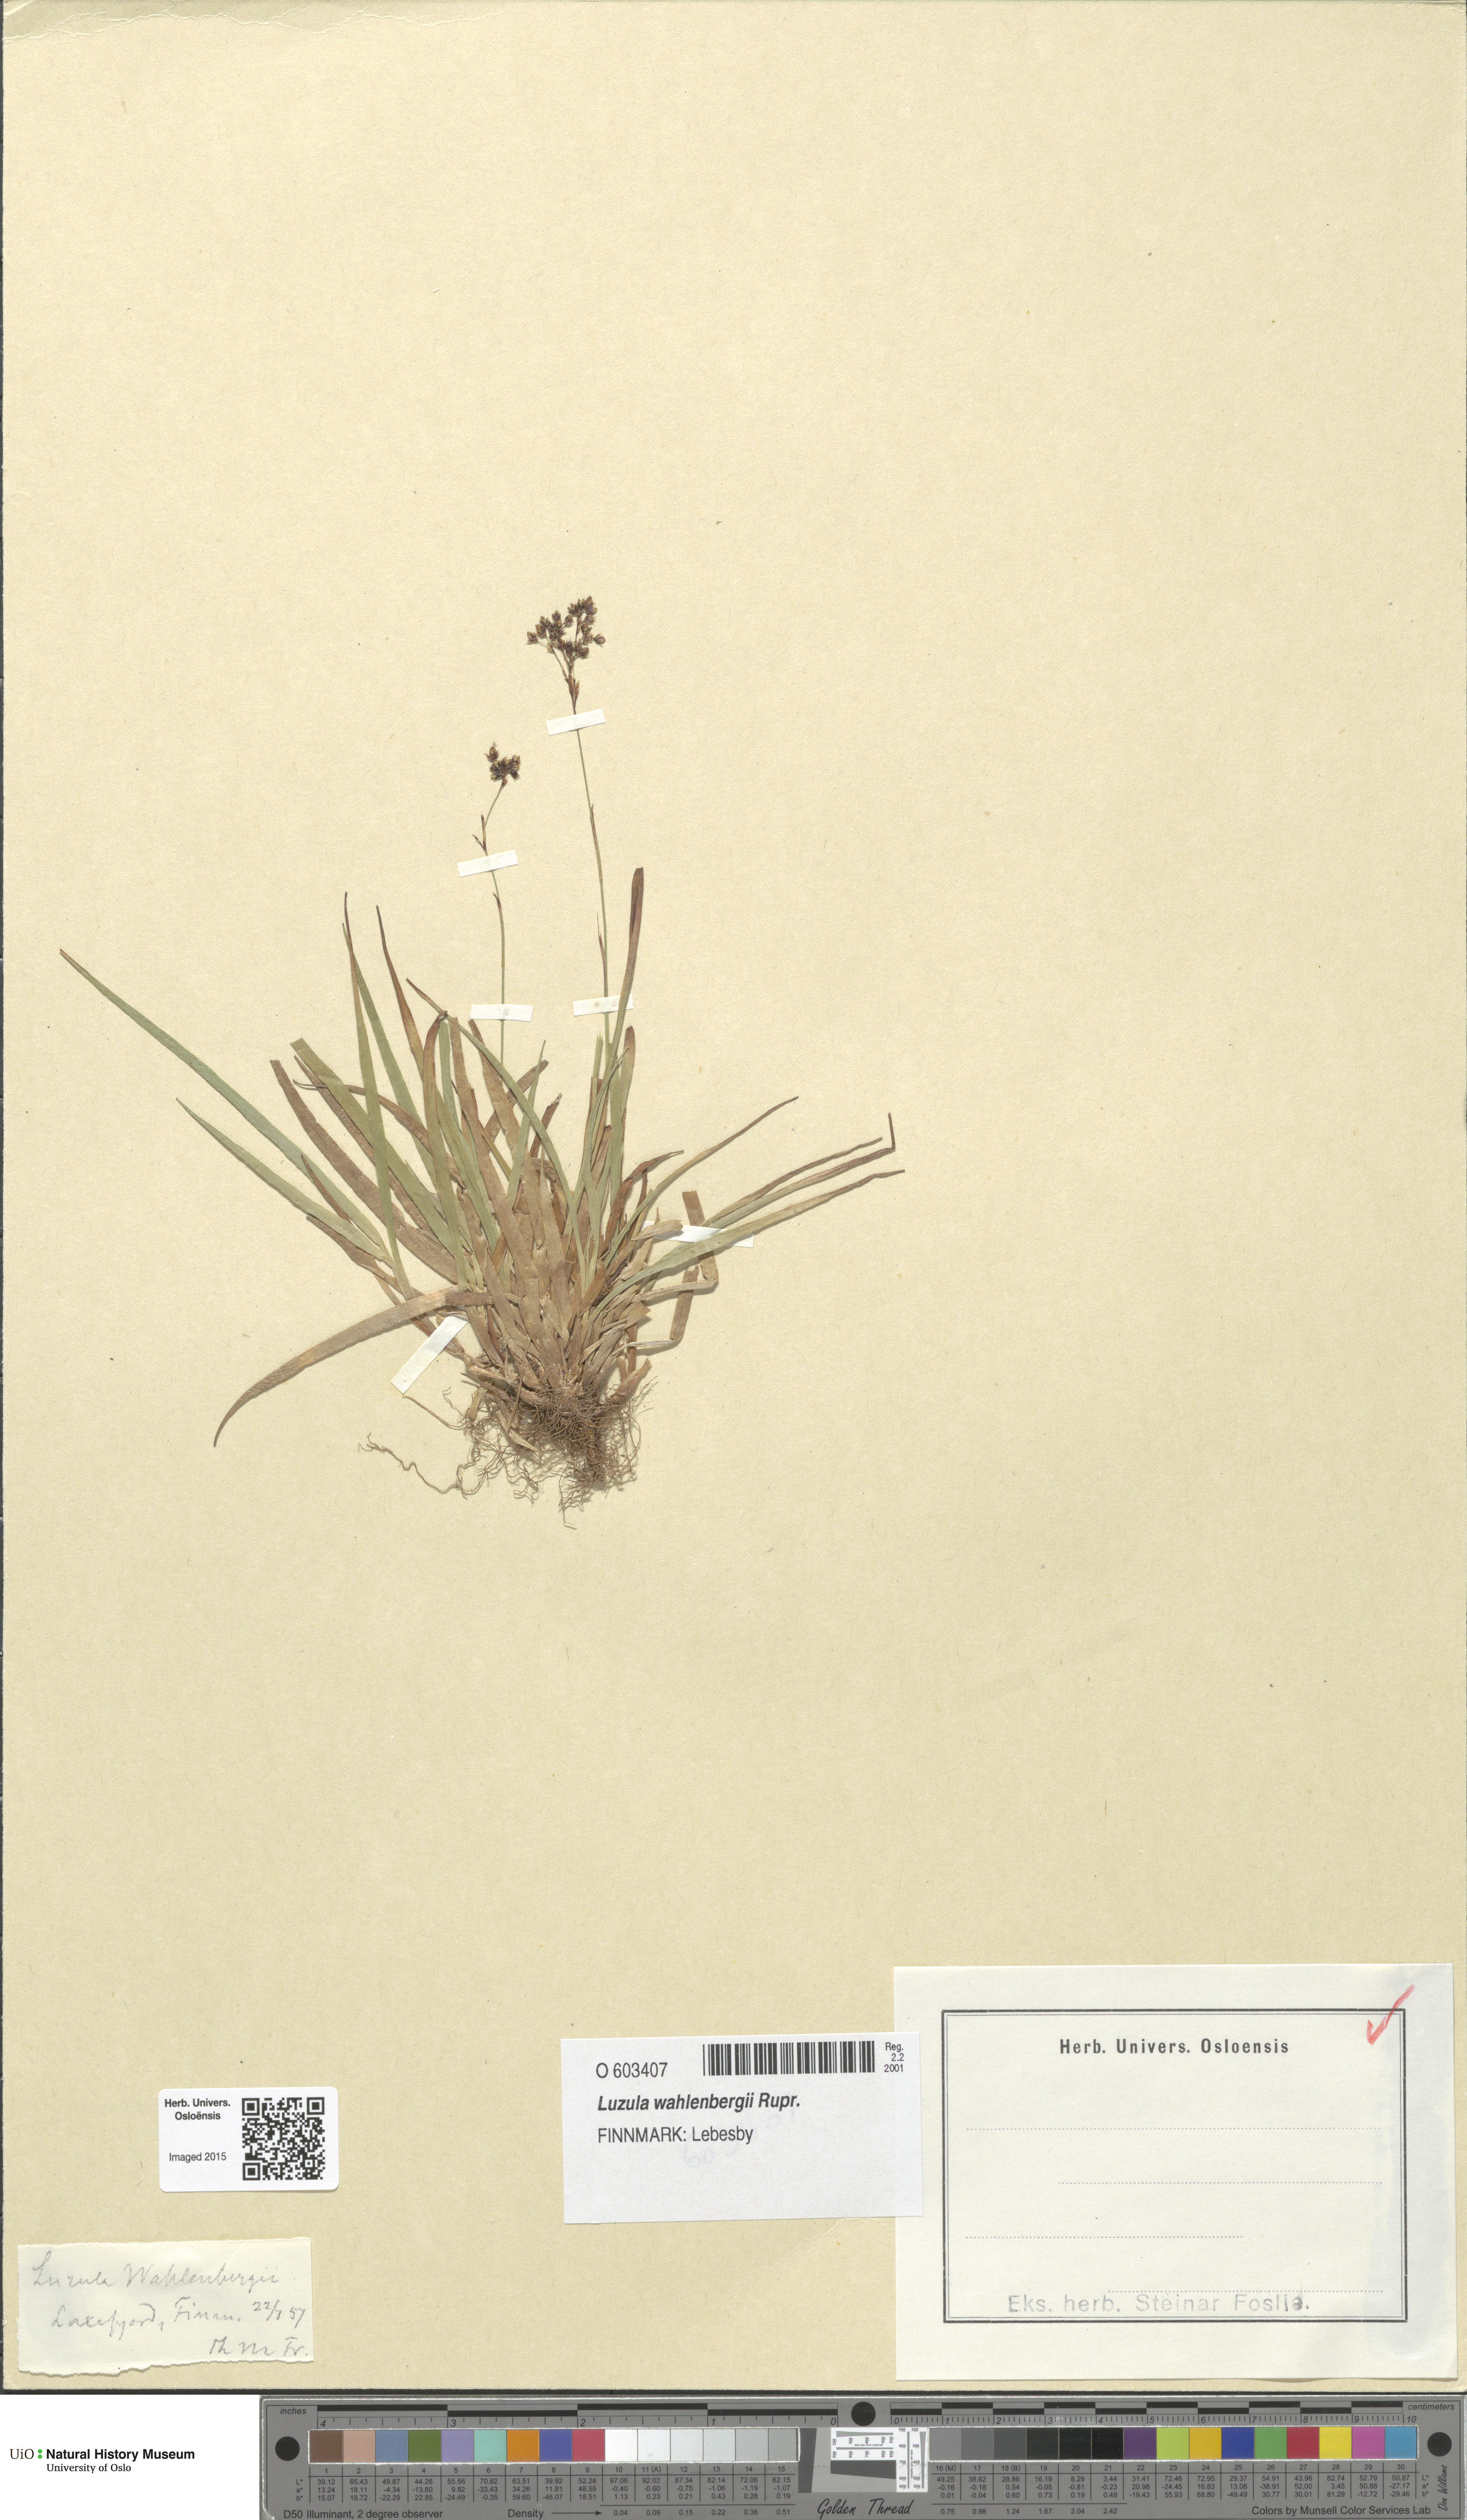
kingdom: Plantae
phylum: Tracheophyta
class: Liliopsida
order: Poales
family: Juncaceae
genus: Luzula
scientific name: Luzula wahlenbergii
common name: Wahlenberg's wood-rush
